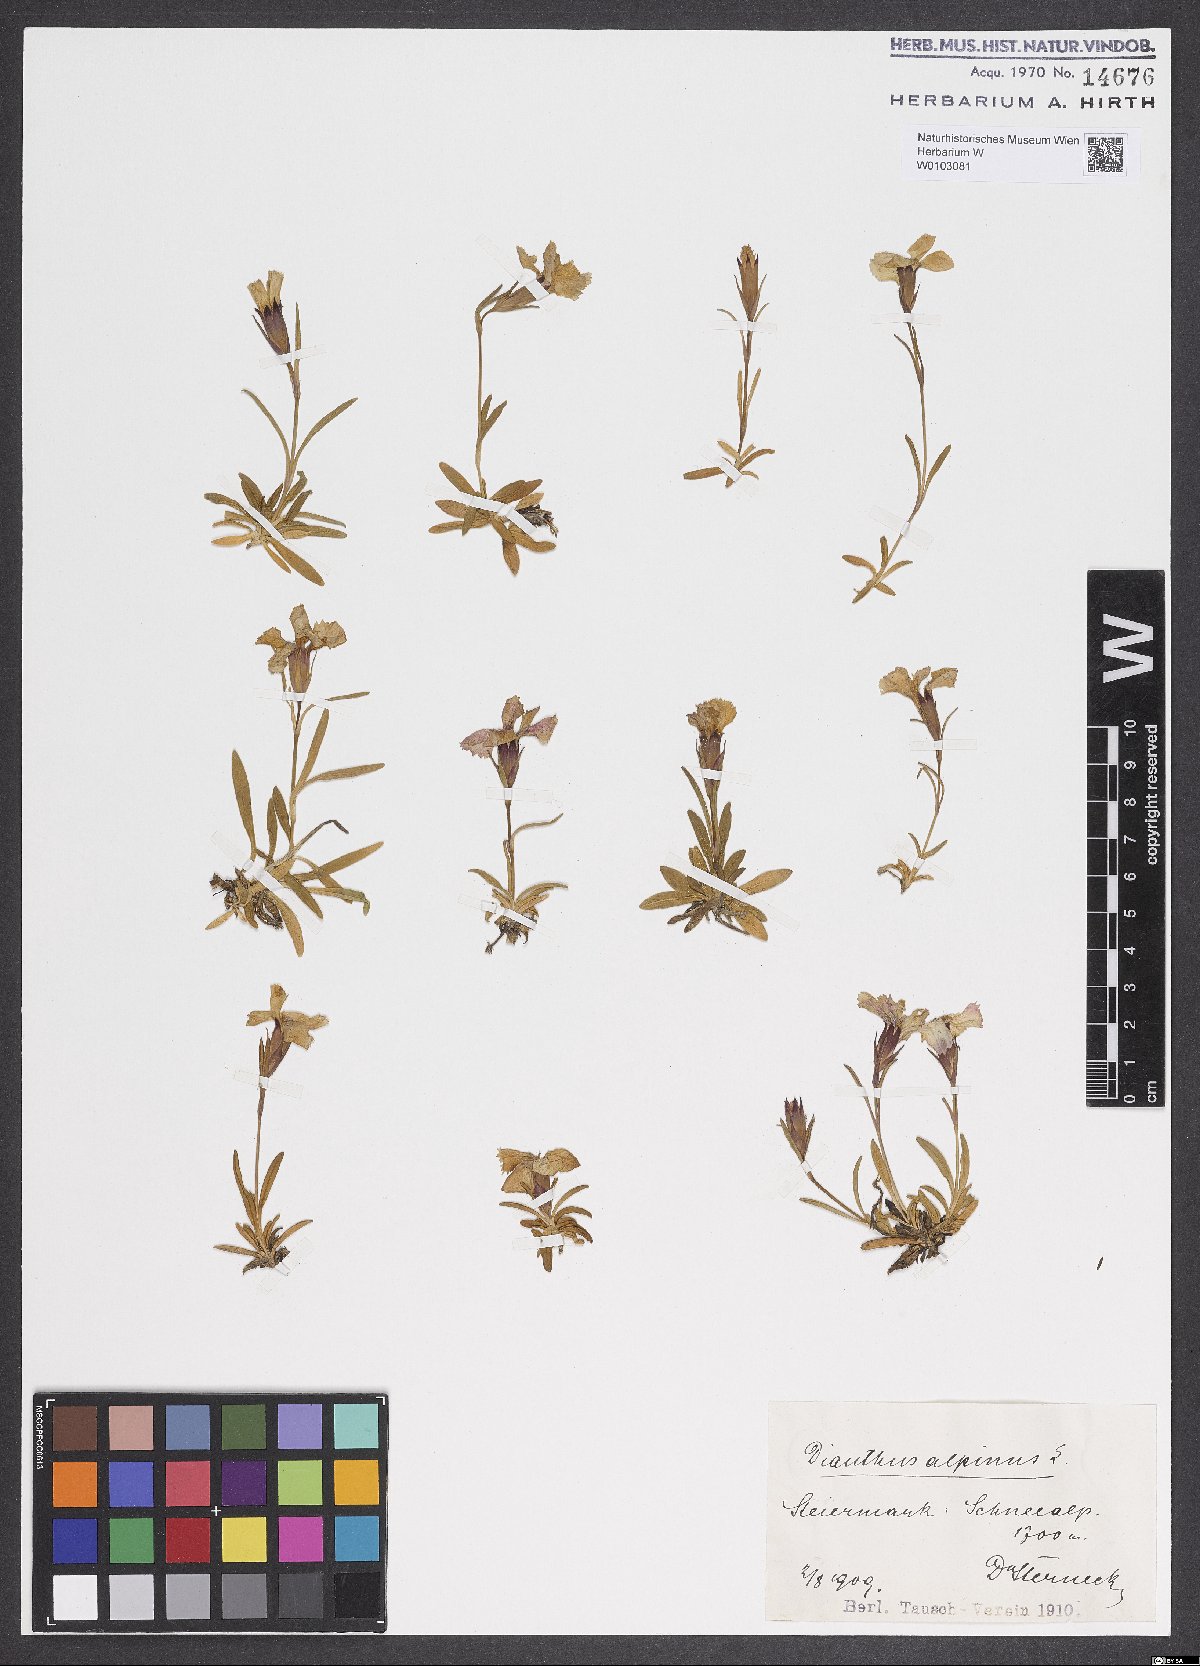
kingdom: Plantae
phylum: Tracheophyta
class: Magnoliopsida
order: Caryophyllales
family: Caryophyllaceae
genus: Dianthus
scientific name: Dianthus alpinus
